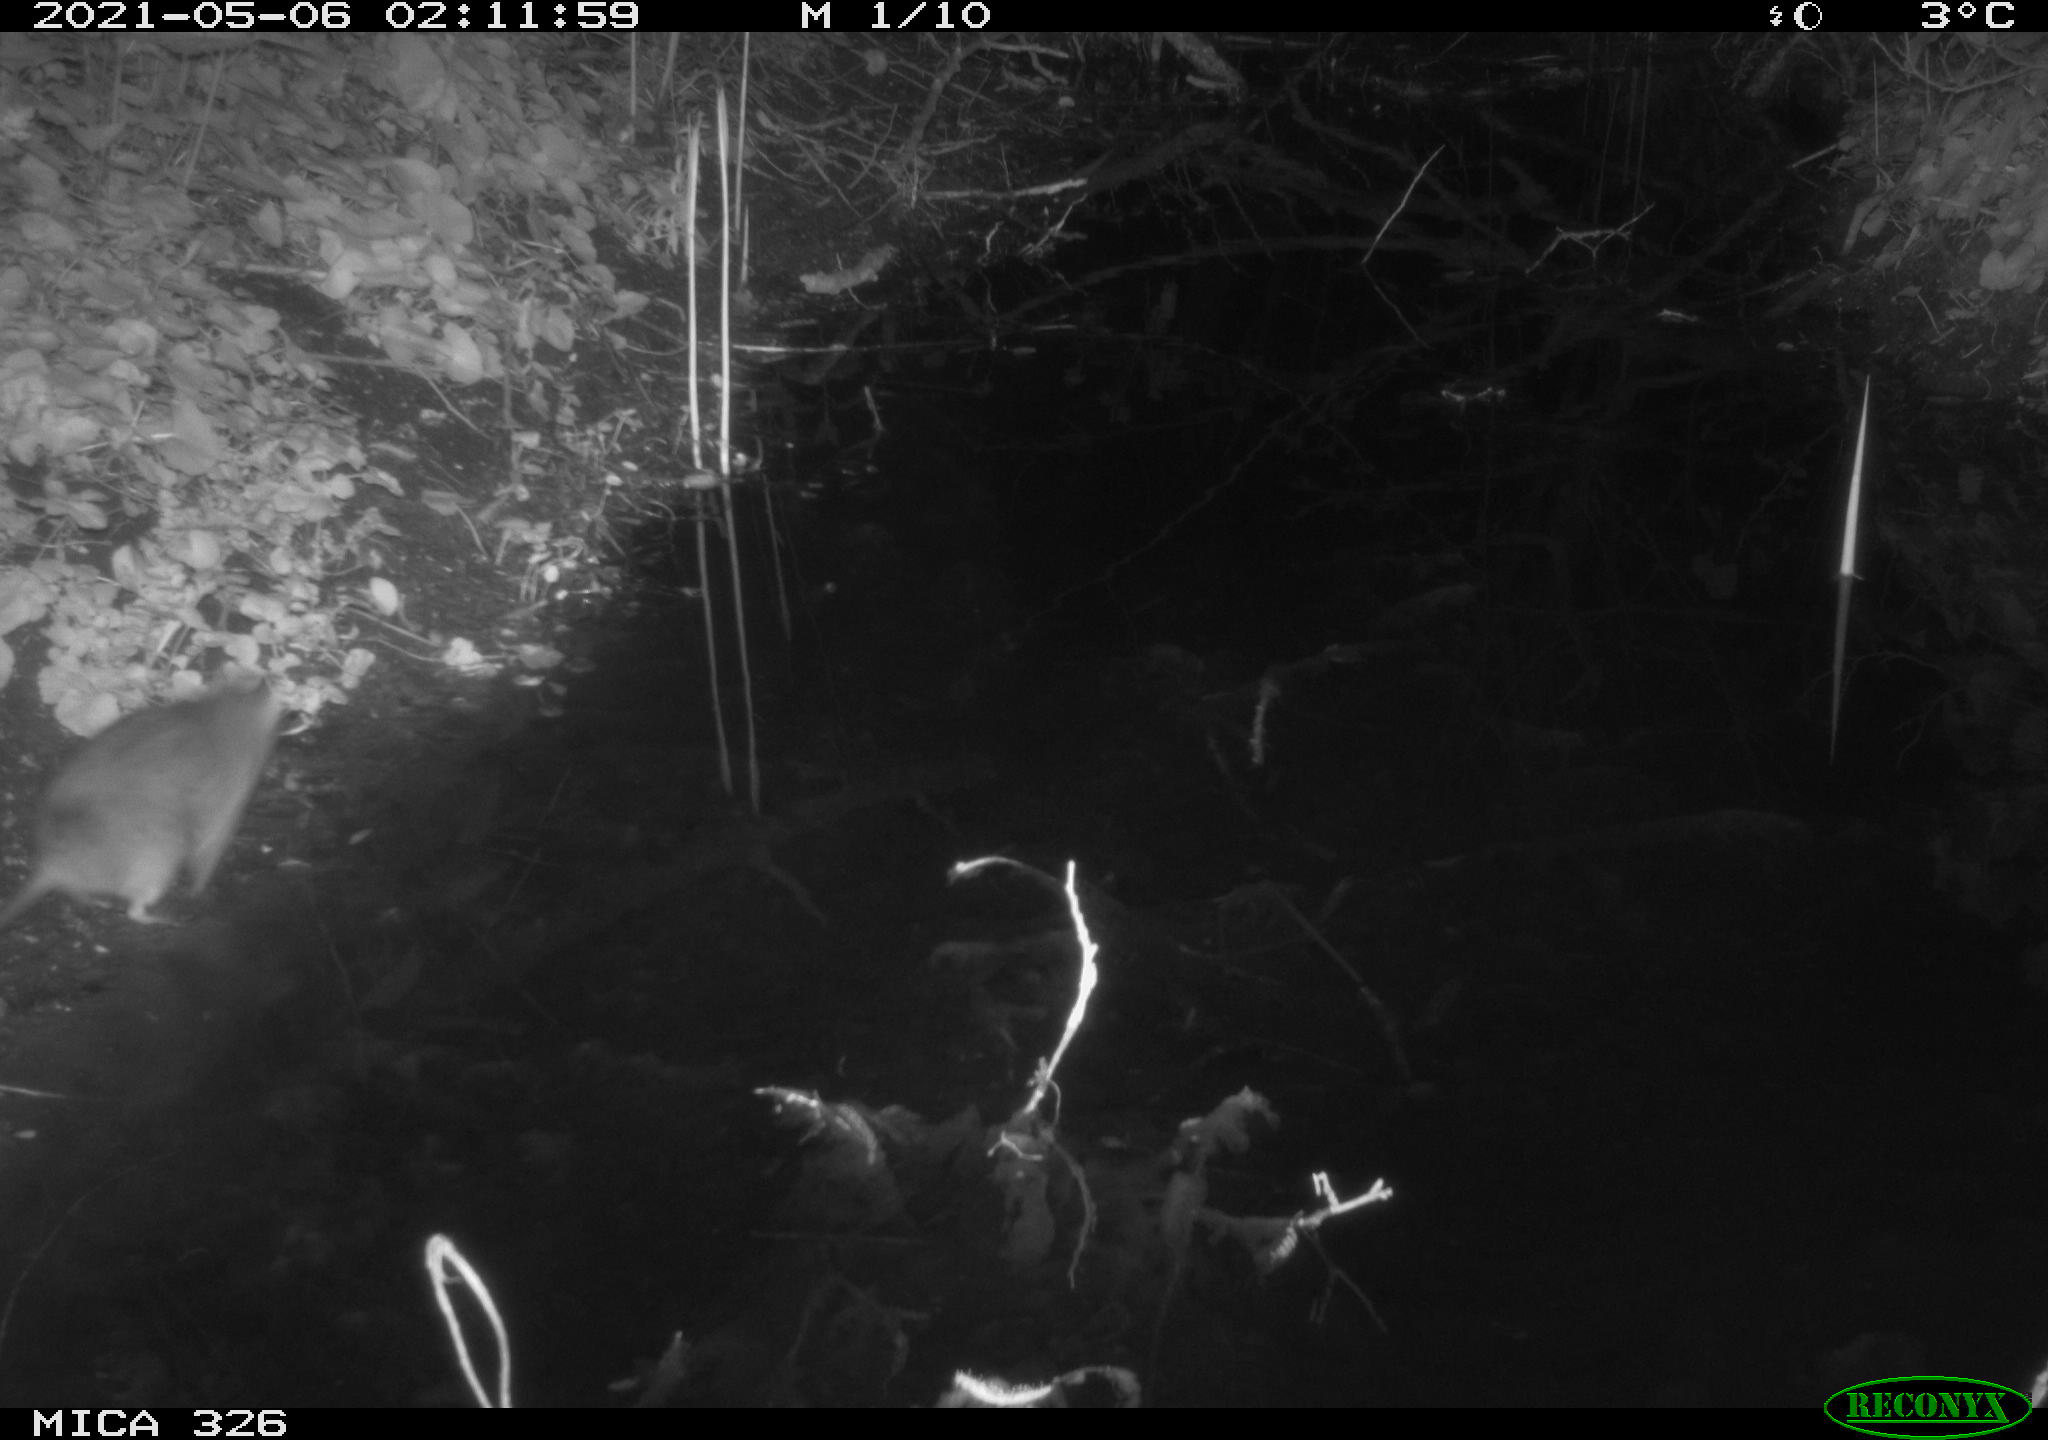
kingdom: Animalia
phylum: Chordata
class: Mammalia
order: Rodentia
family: Muridae
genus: Rattus
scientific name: Rattus norvegicus
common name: Brown rat
